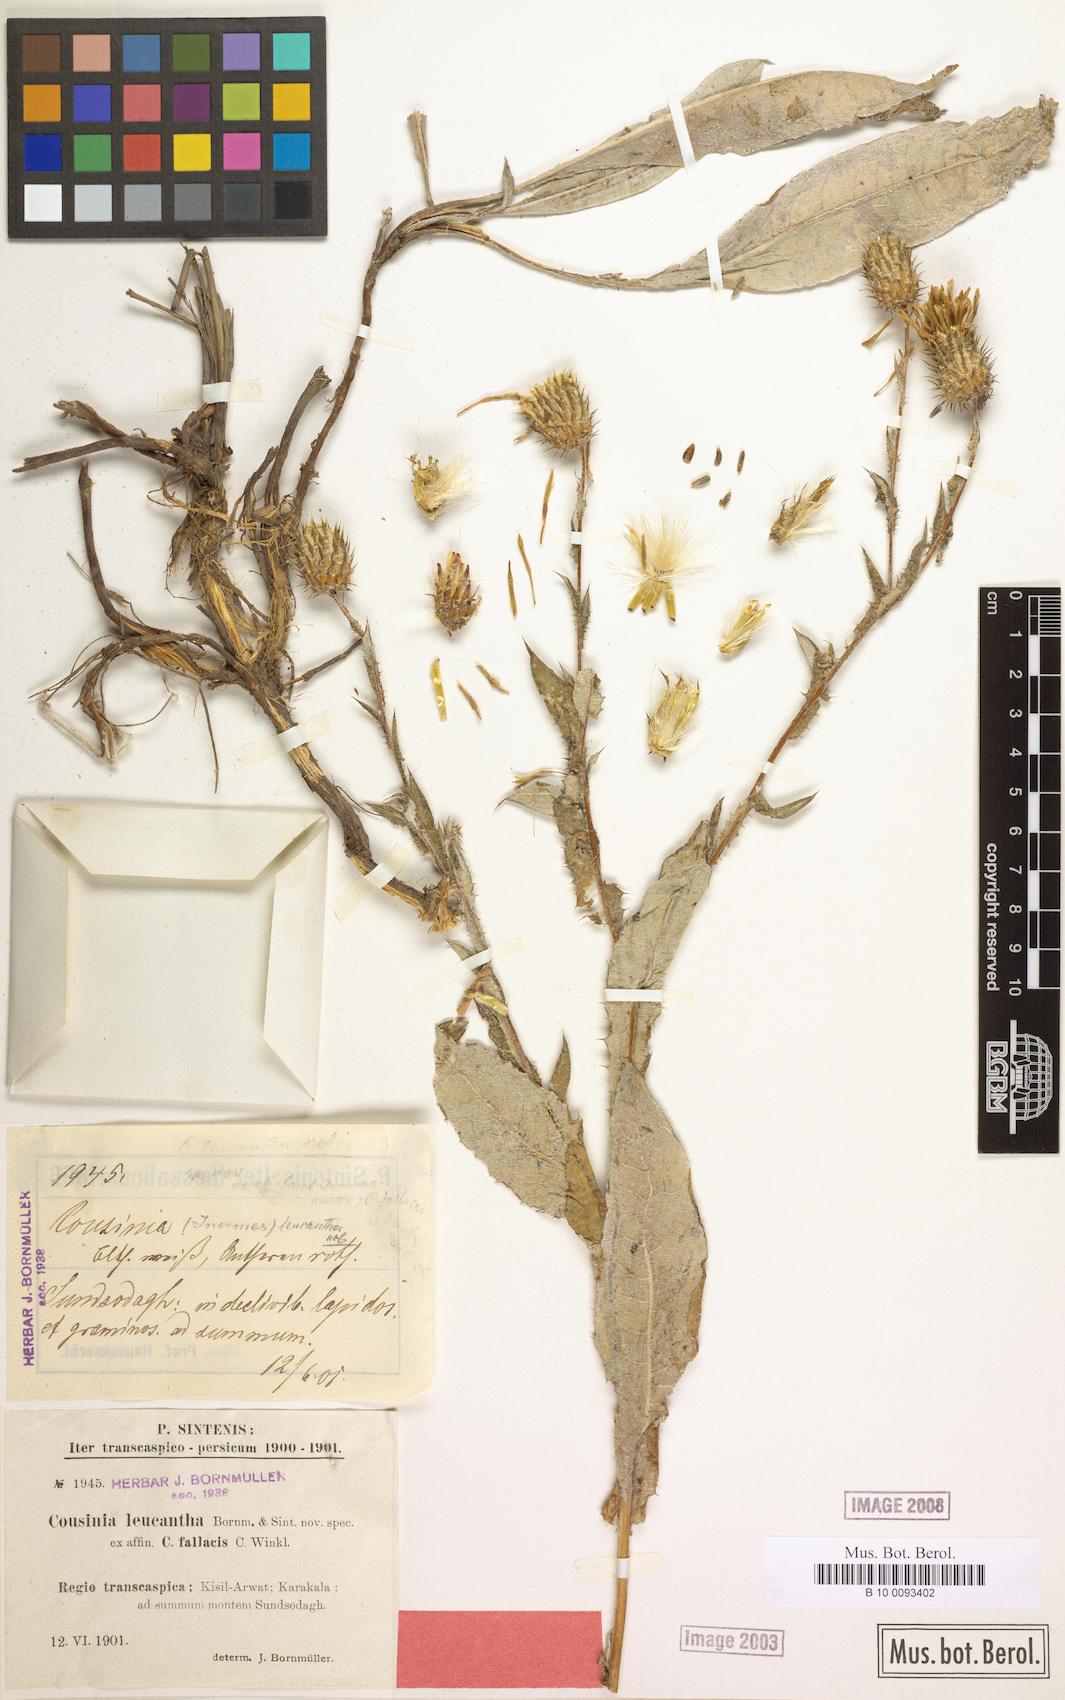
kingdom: Plantae
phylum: Tracheophyta
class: Magnoliopsida
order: Asterales
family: Asteraceae
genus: Cousinia
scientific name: Cousinia leucantha
